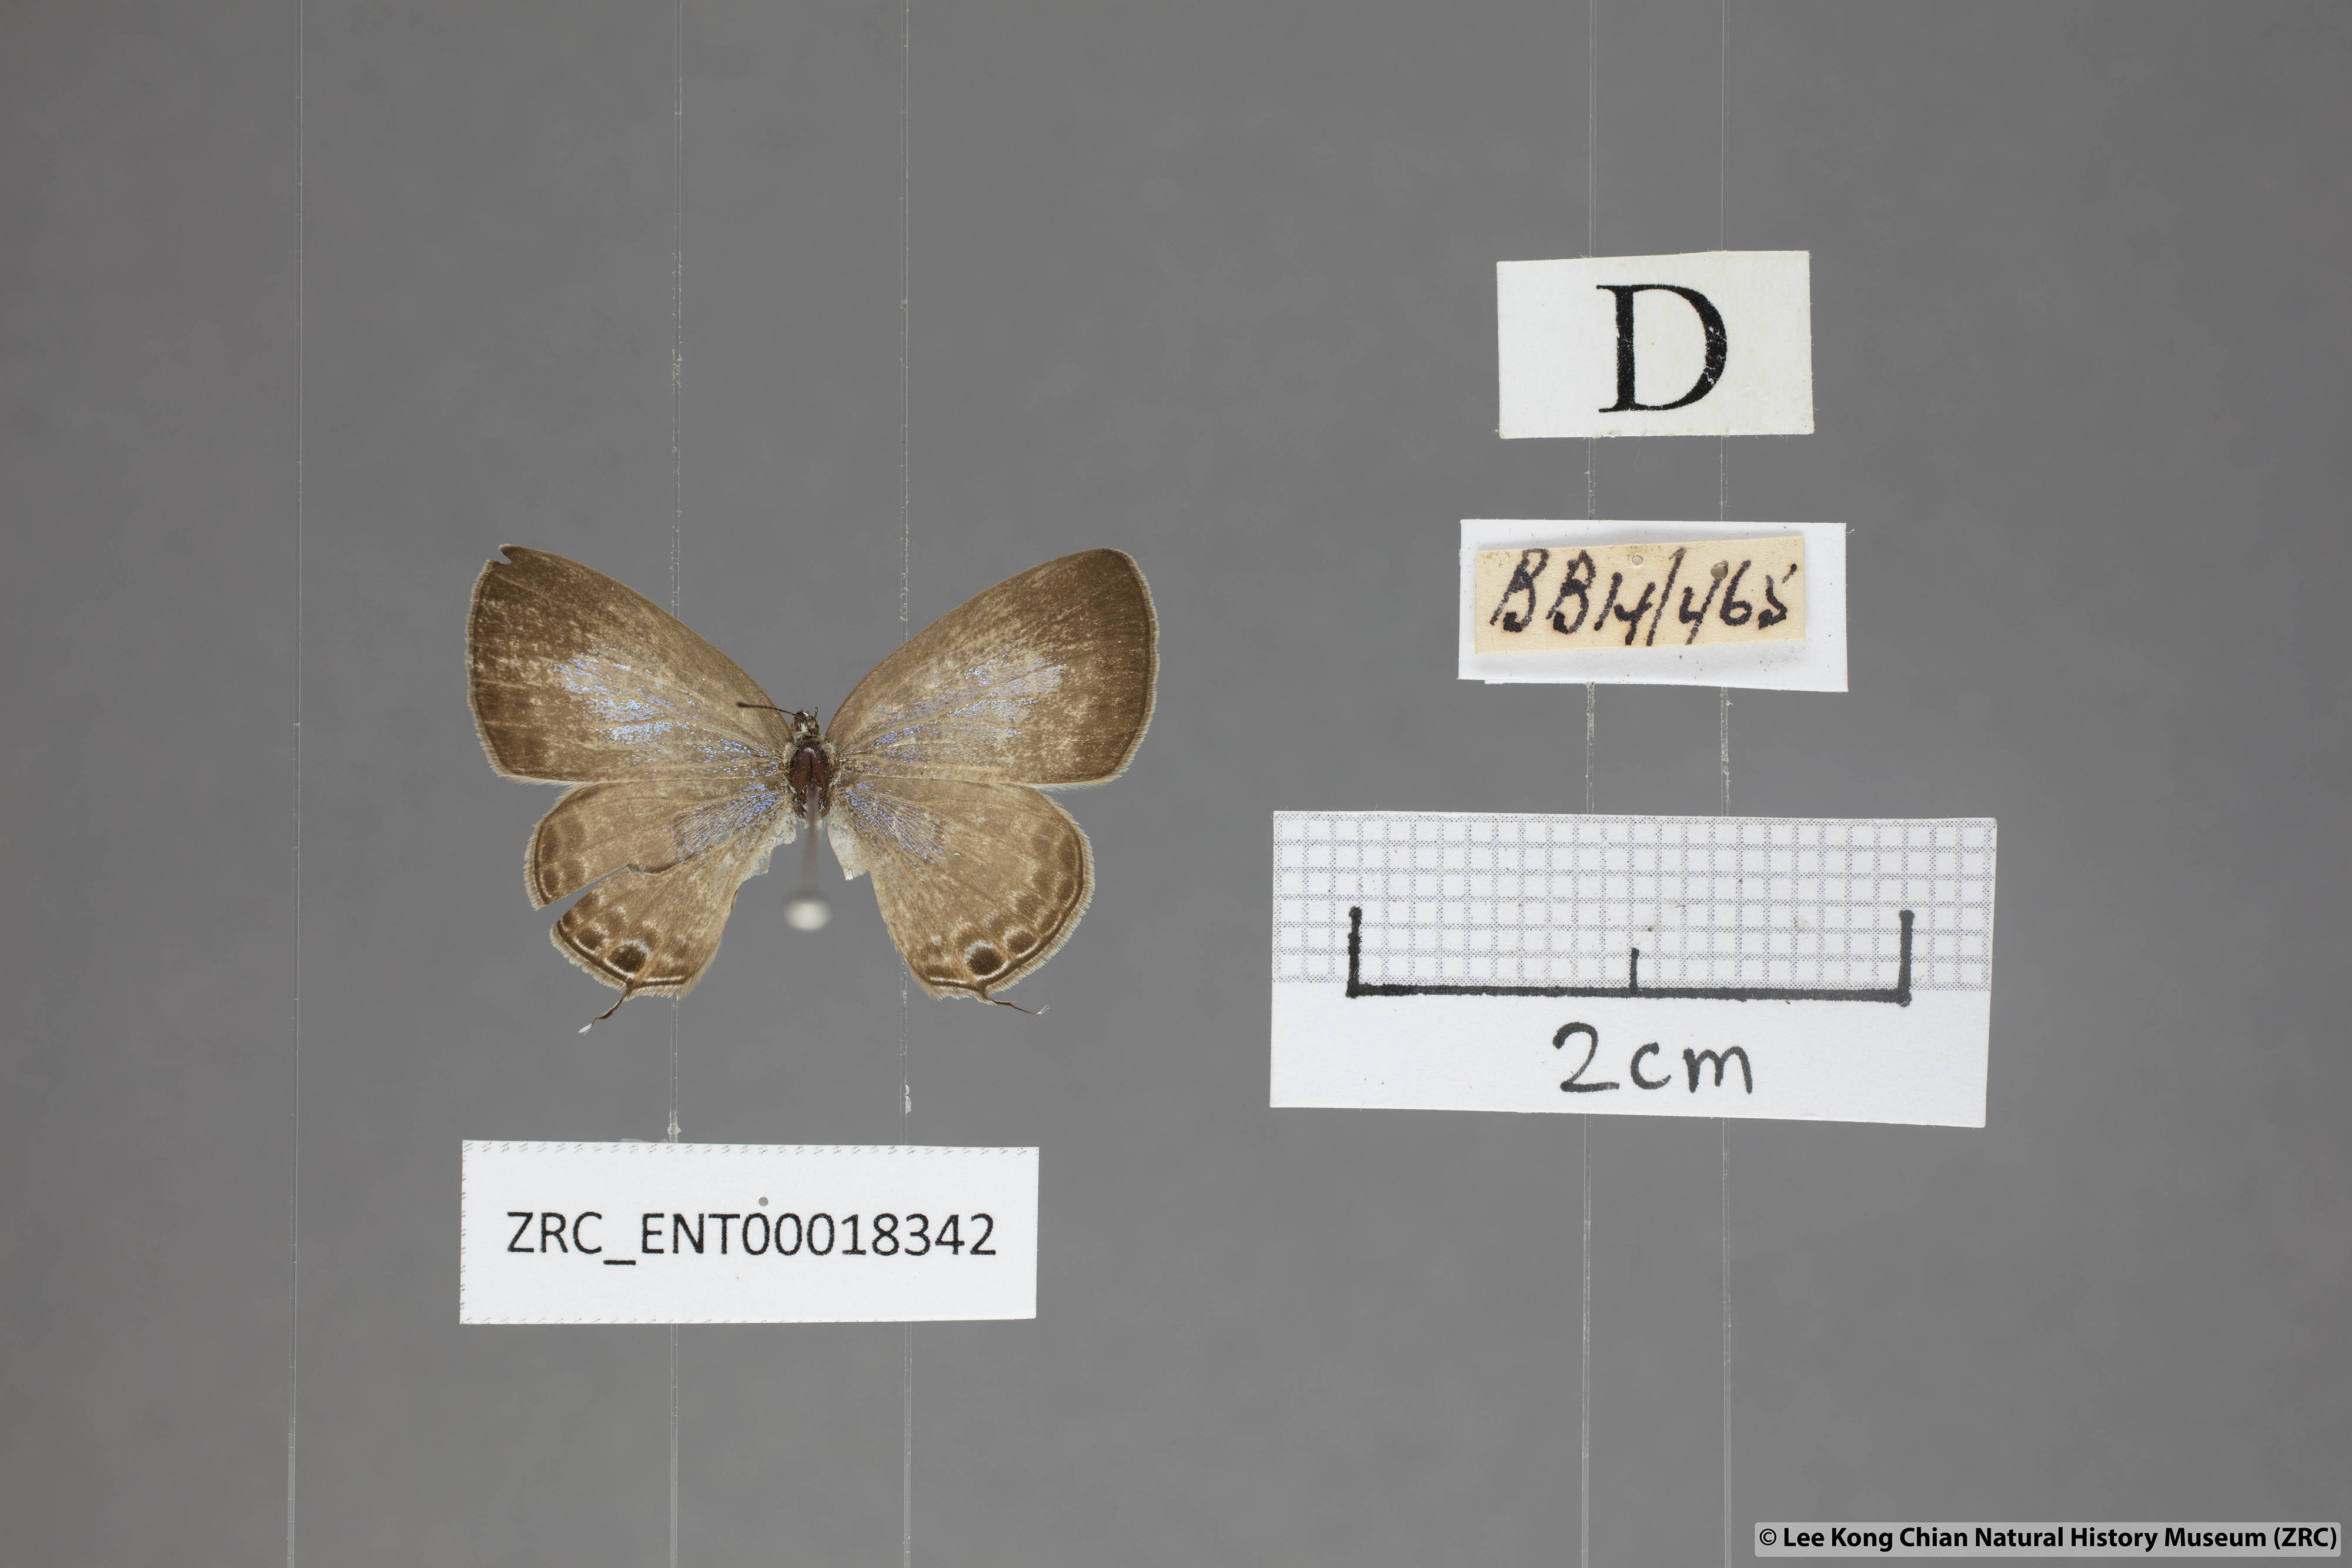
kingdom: Animalia
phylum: Arthropoda
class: Insecta
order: Lepidoptera
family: Lycaenidae
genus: Nacaduba
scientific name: Nacaduba calauria
